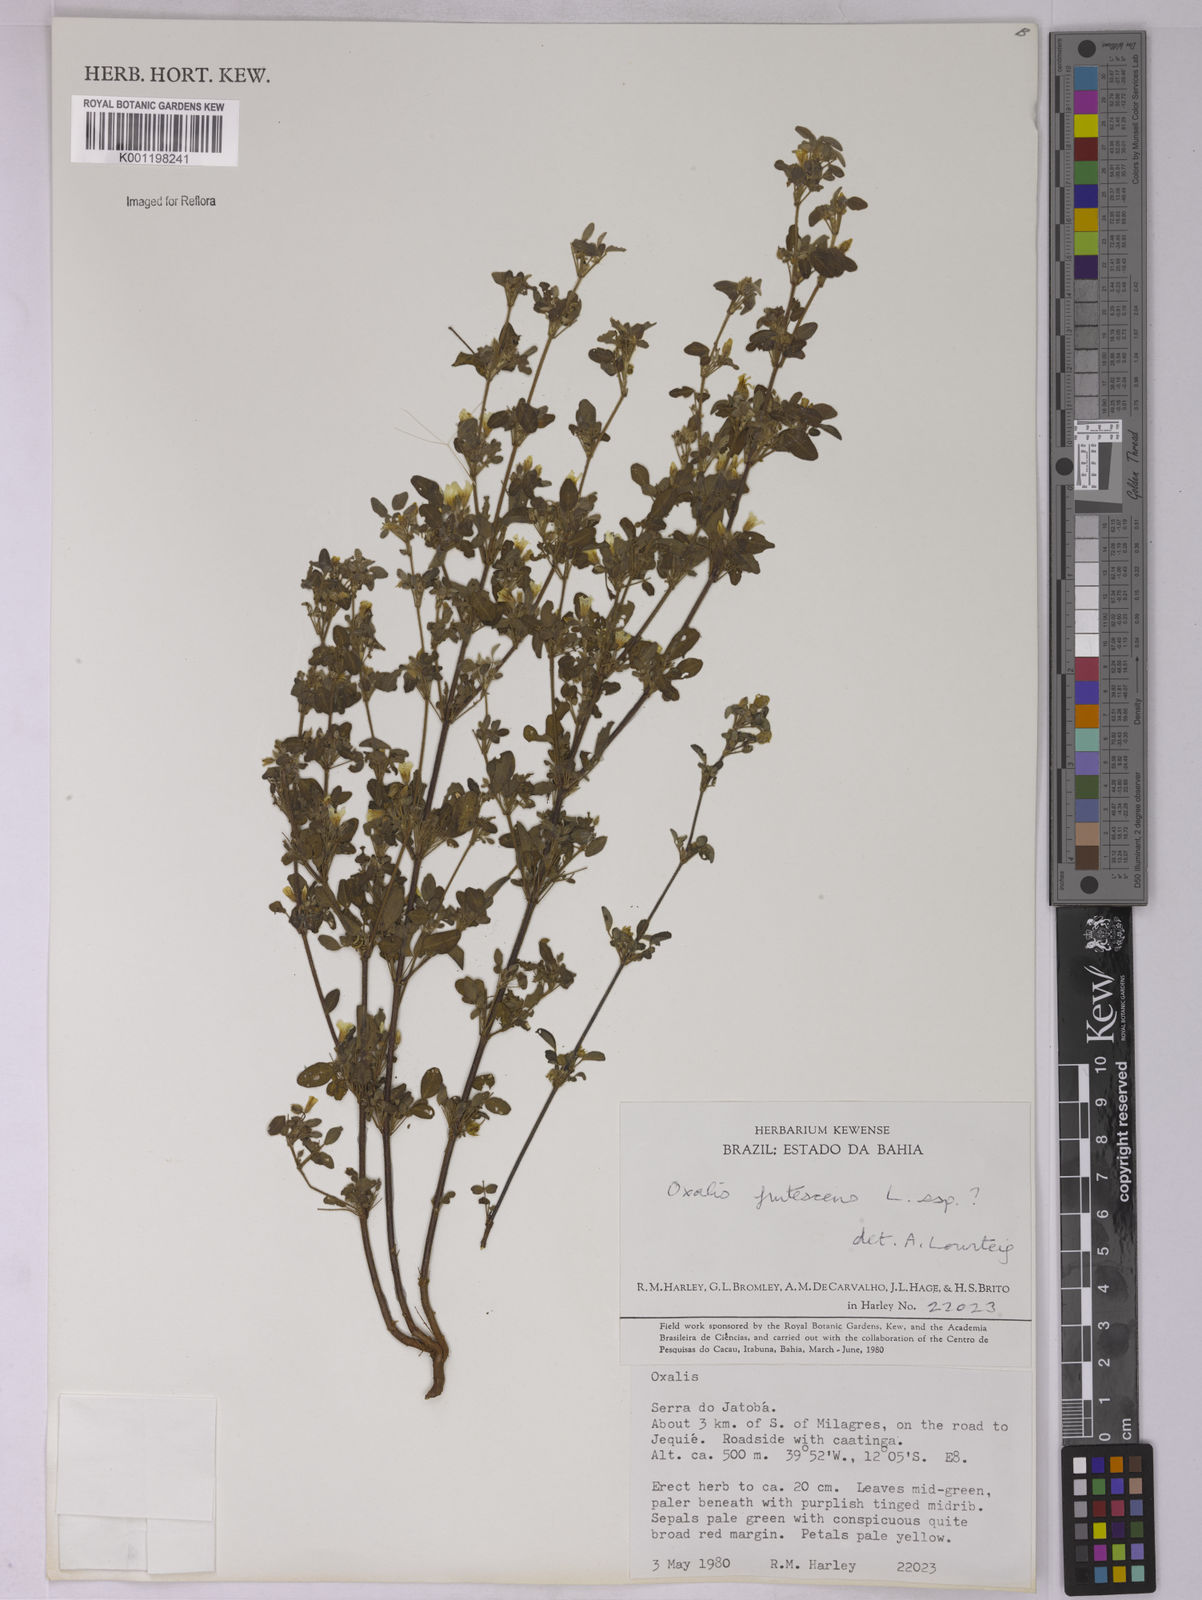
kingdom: Plantae
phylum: Tracheophyta
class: Magnoliopsida
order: Oxalidales
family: Oxalidaceae
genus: Oxalis
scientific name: Oxalis frutescens
